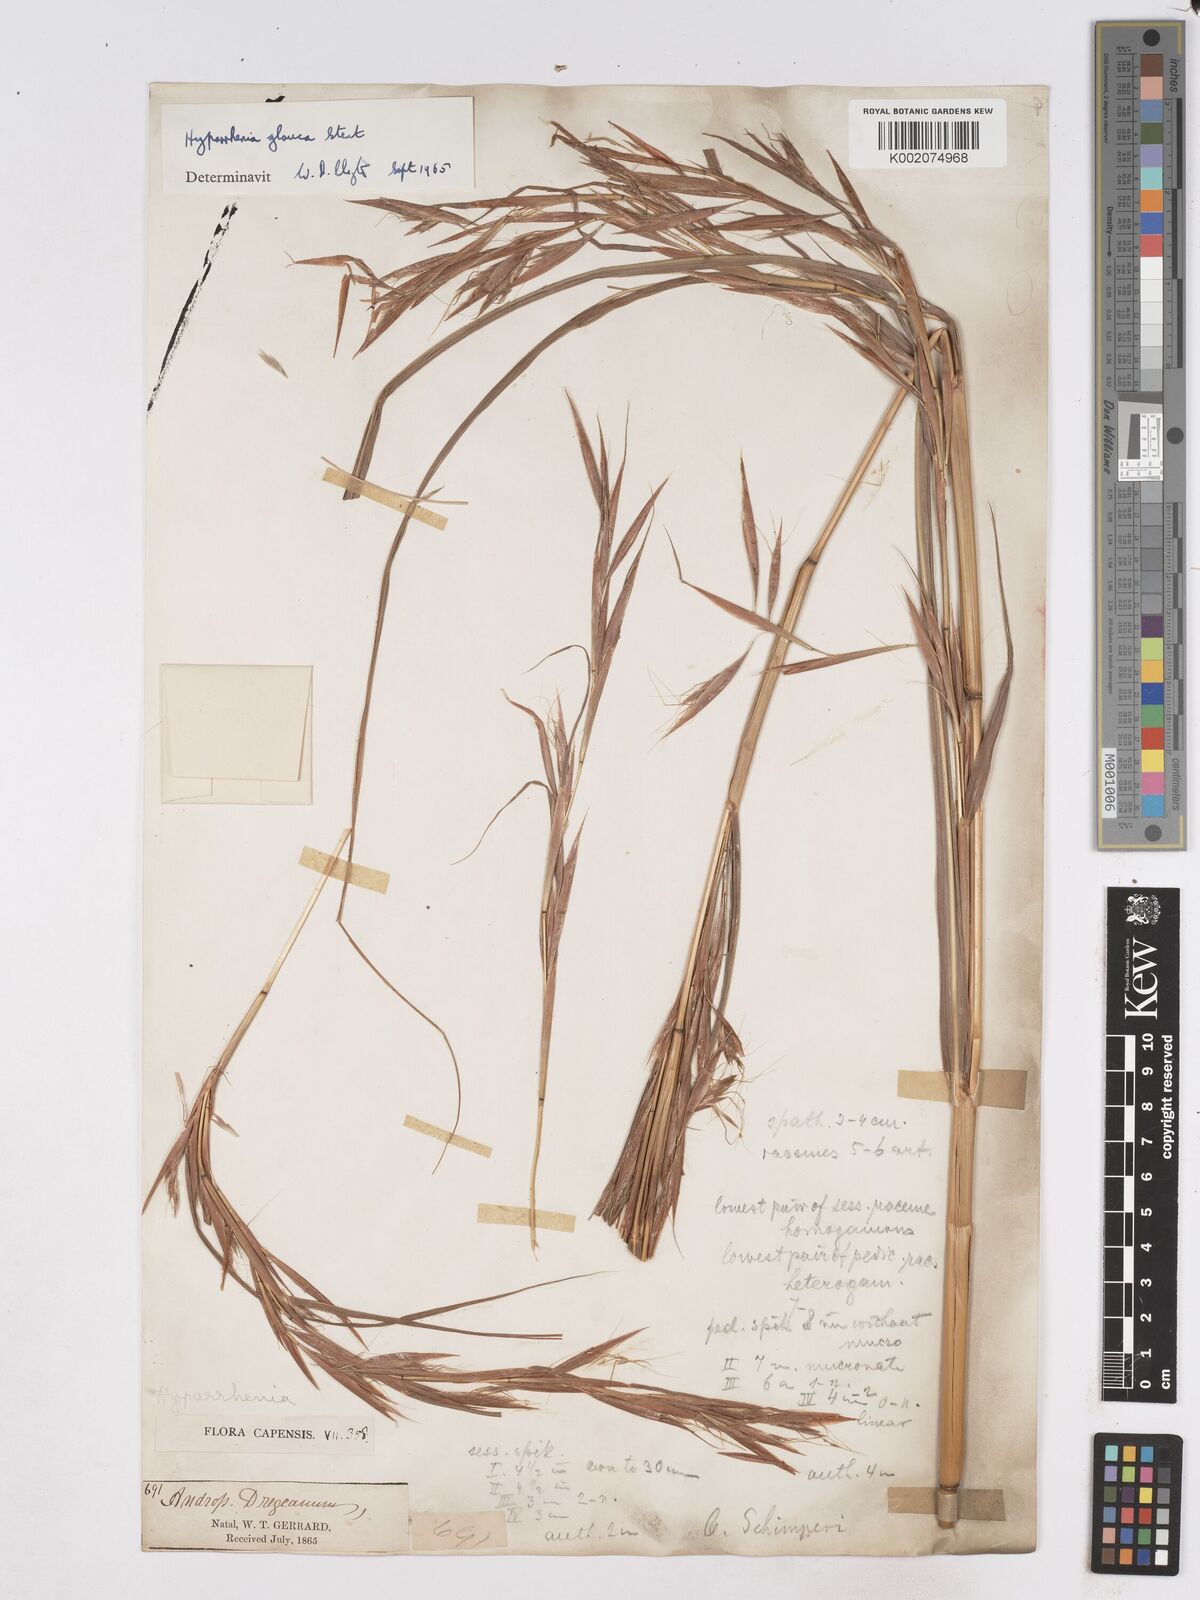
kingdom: Plantae
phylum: Tracheophyta
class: Liliopsida
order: Poales
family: Poaceae
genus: Hyparrhenia
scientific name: Hyparrhenia tamba
